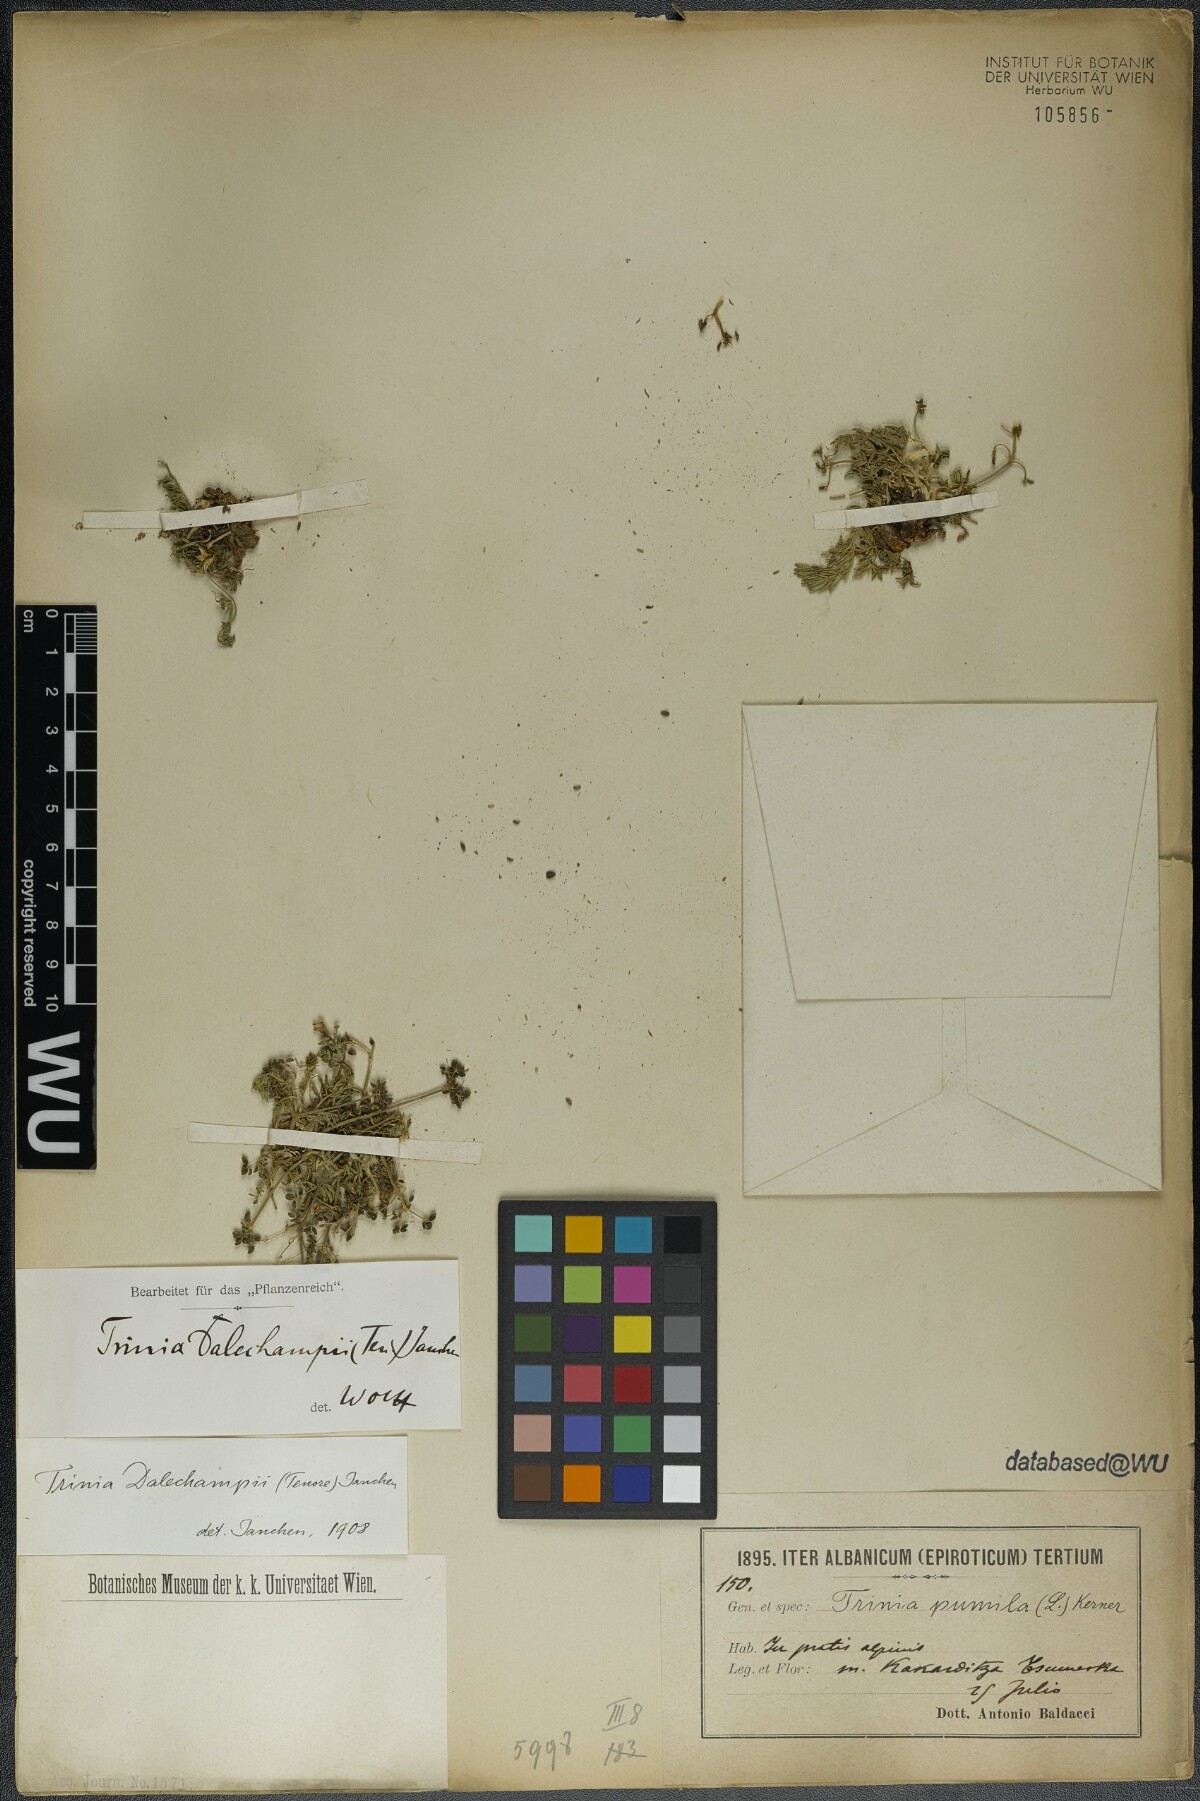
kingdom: Plantae
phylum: Tracheophyta
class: Magnoliopsida
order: Apiales
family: Apiaceae
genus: Trinia
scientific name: Trinia dalechampii
